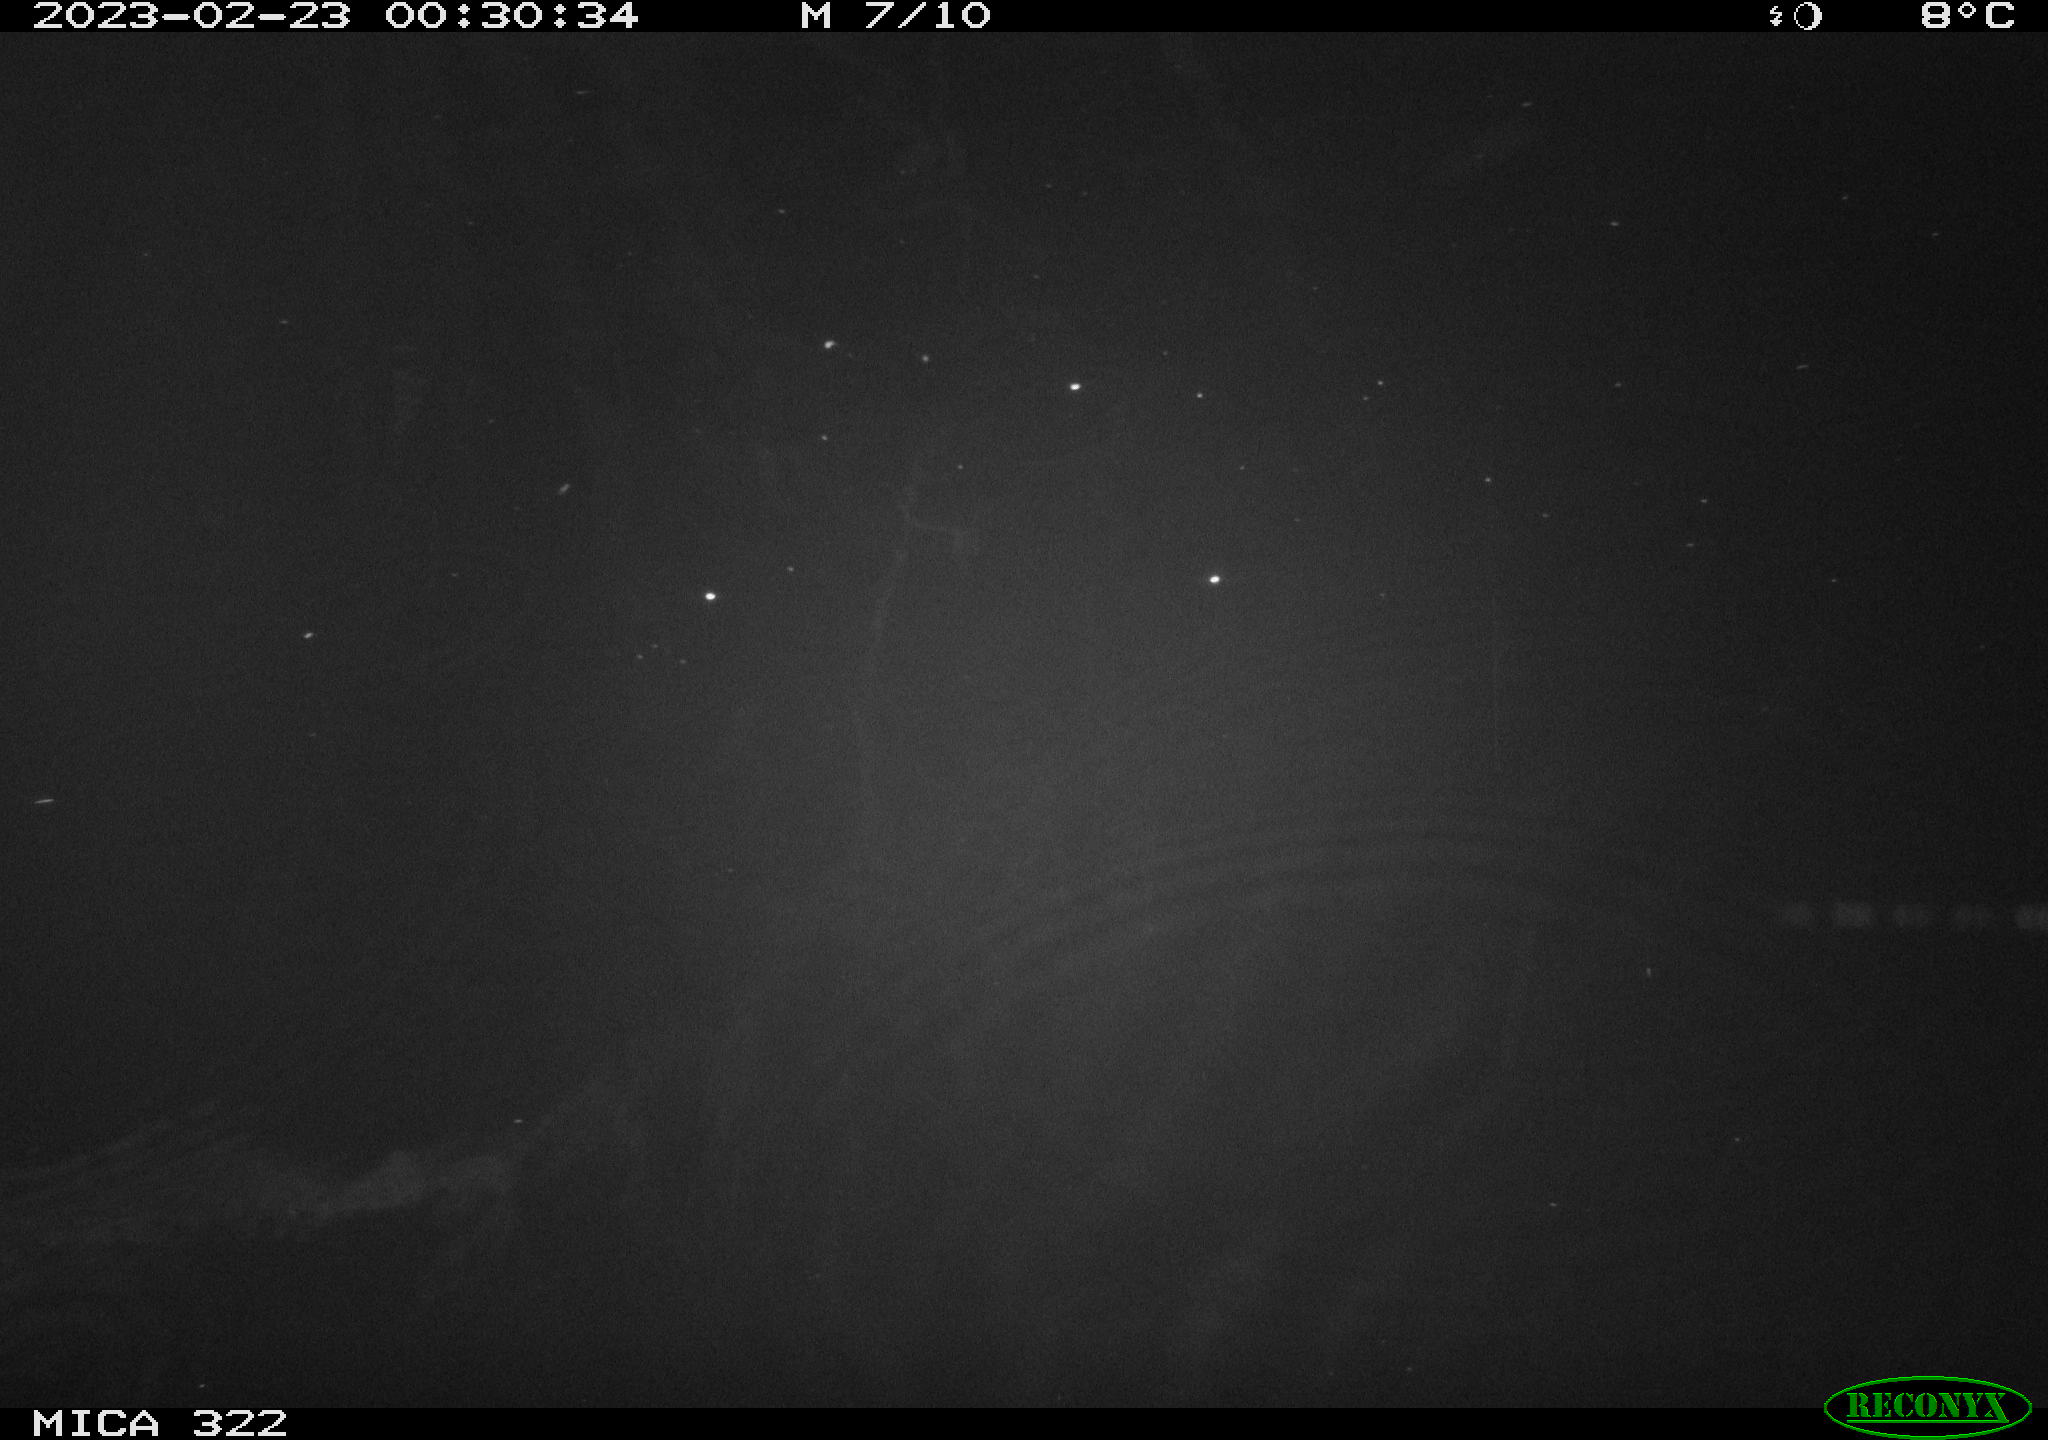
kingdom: Animalia
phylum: Chordata
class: Mammalia
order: Rodentia
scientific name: Rodentia
